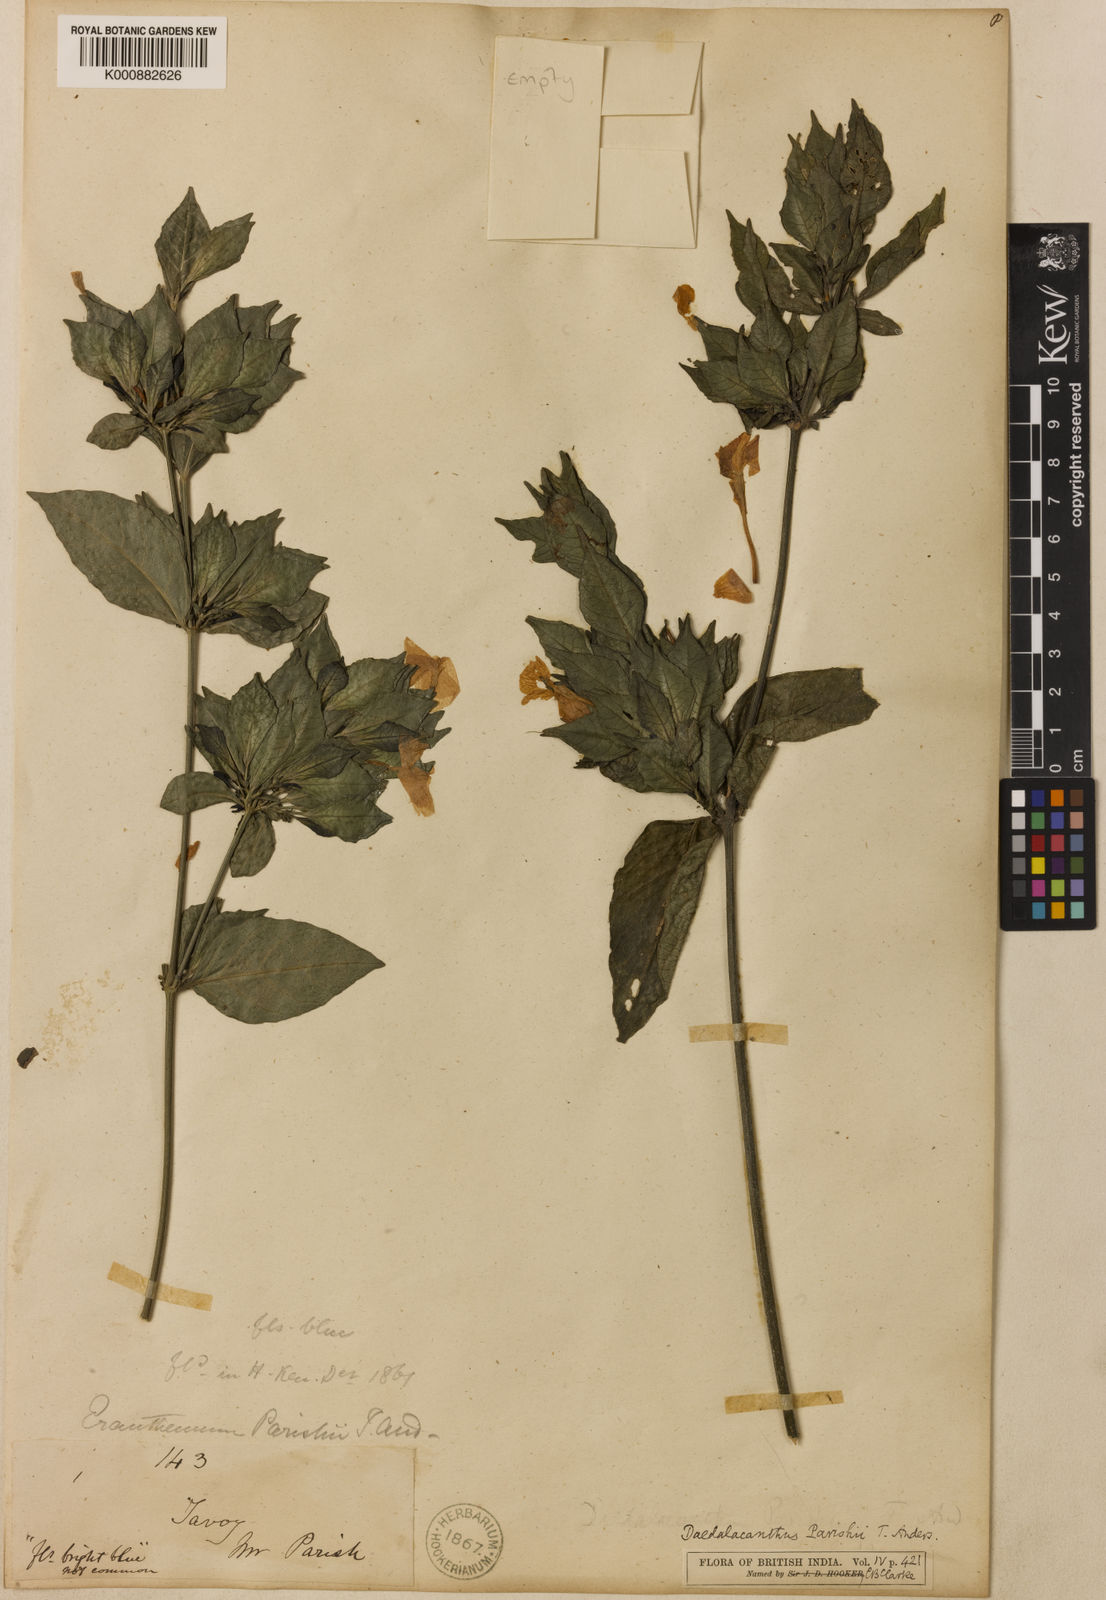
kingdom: Plantae
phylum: Tracheophyta
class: Magnoliopsida
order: Lamiales
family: Acanthaceae
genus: Pseuderanthemum
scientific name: Pseuderanthemum parishii
